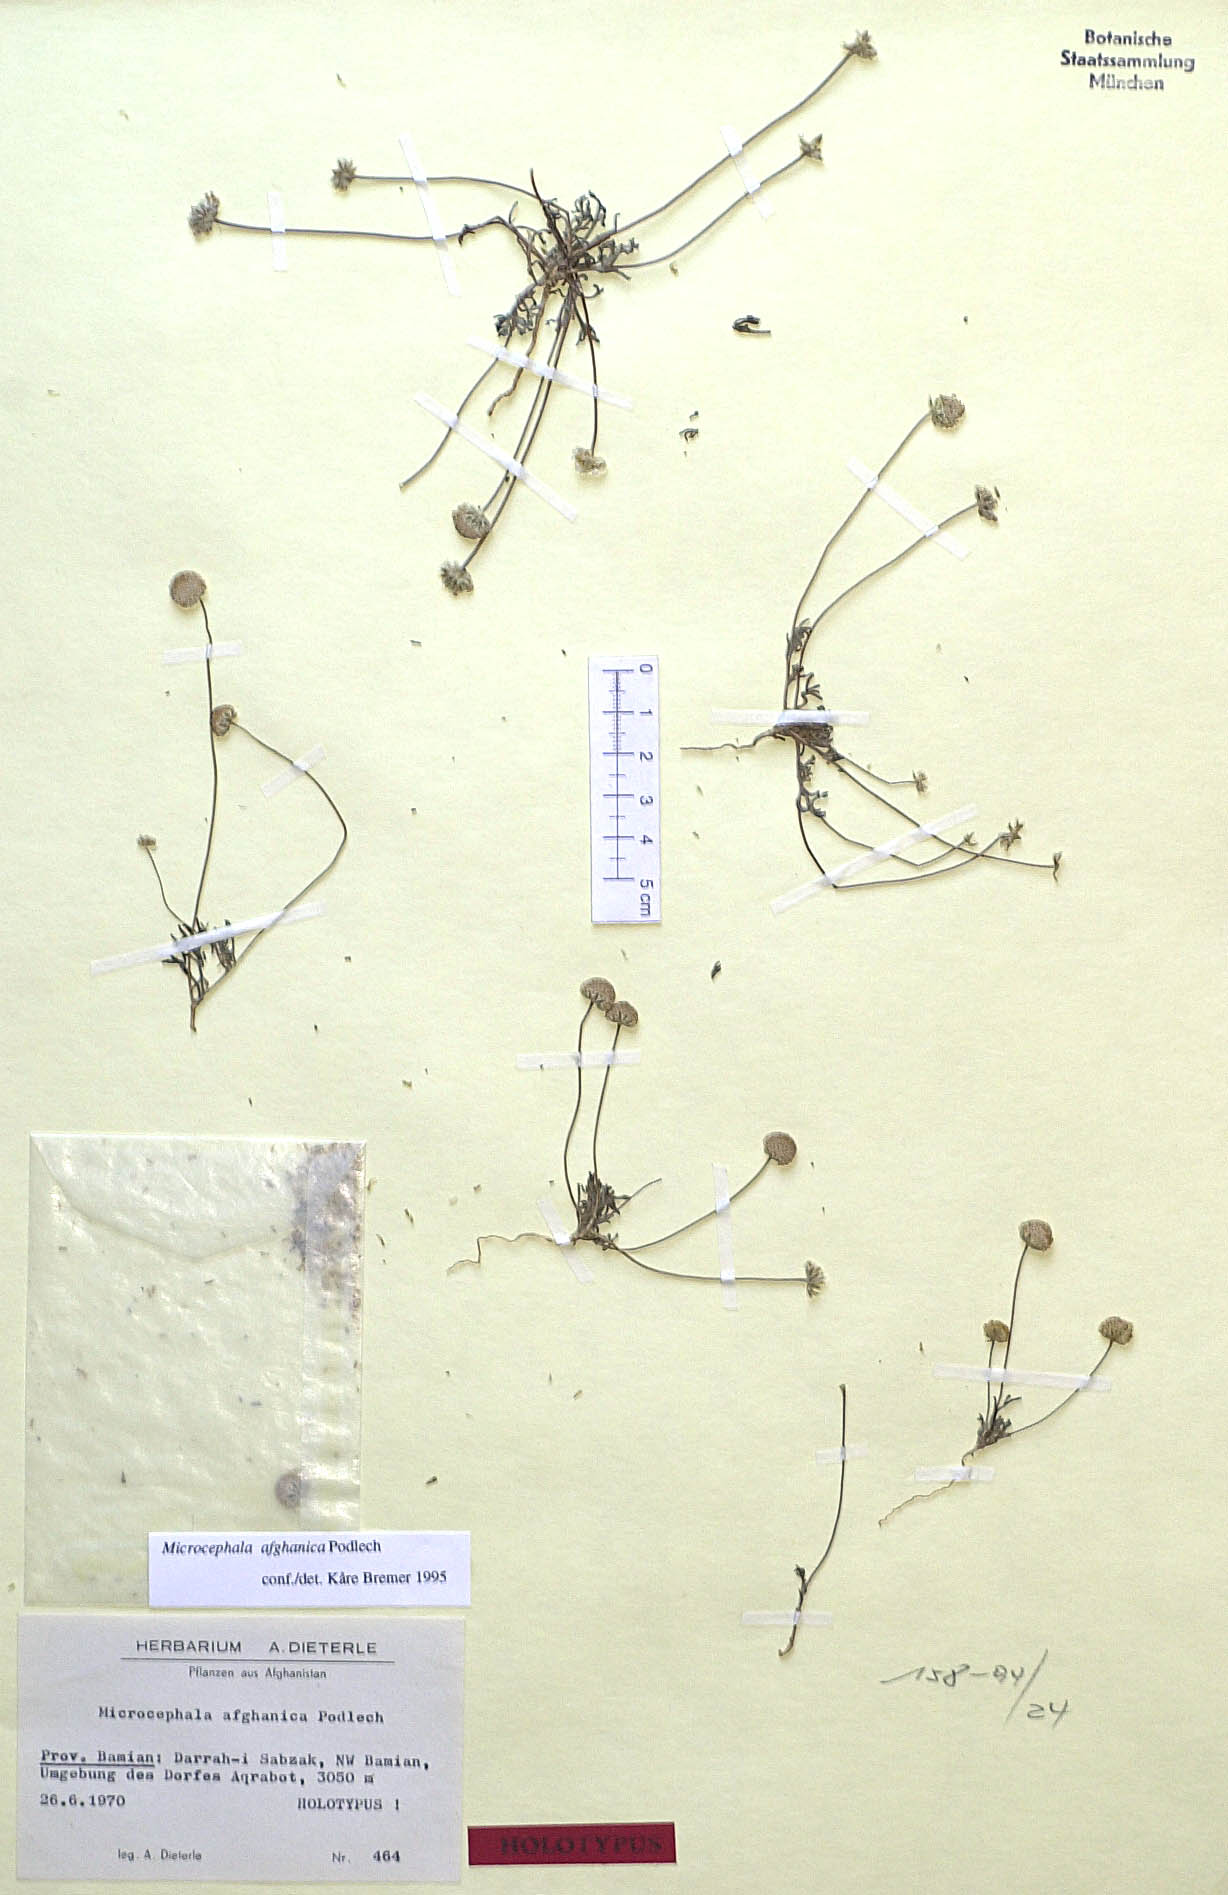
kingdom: Plantae
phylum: Tracheophyta
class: Magnoliopsida
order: Asterales
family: Asteraceae
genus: Microcephala
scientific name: Microcephala afghanica
